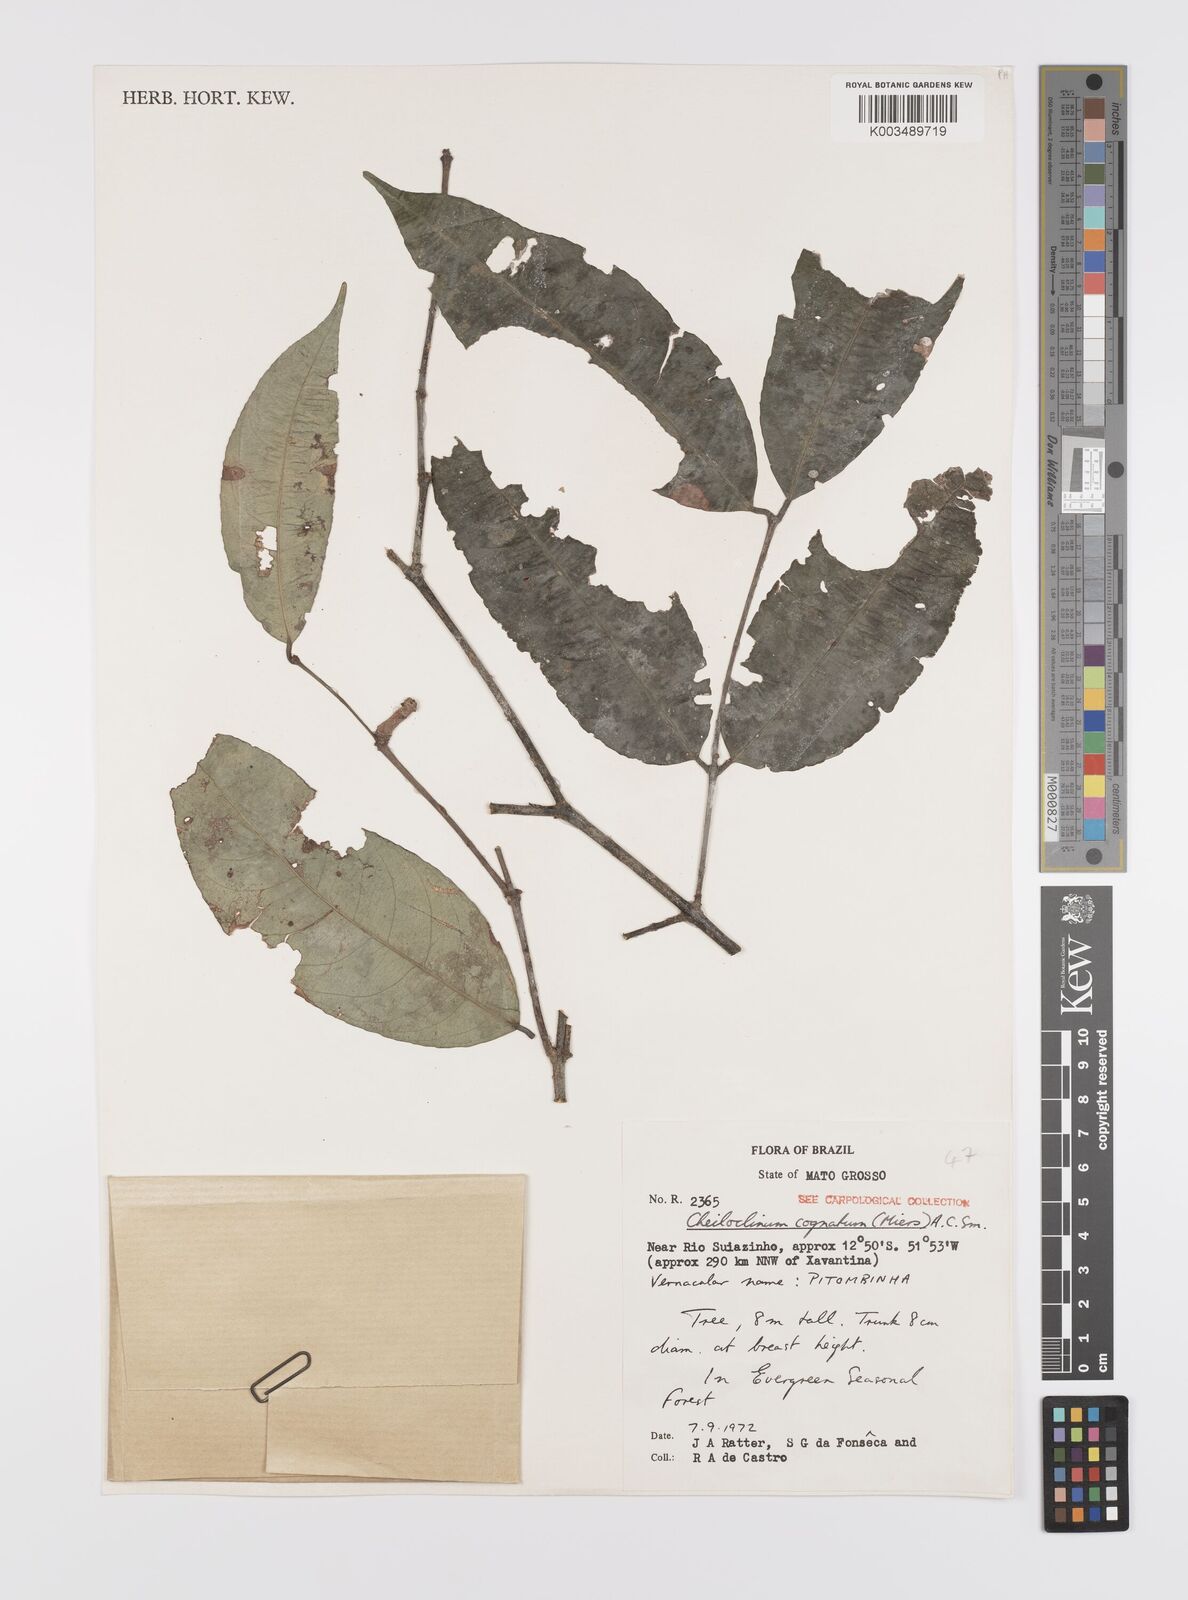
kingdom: Plantae
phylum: Tracheophyta
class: Magnoliopsida
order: Celastrales
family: Celastraceae
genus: Cheiloclinium
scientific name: Cheiloclinium cognatum
